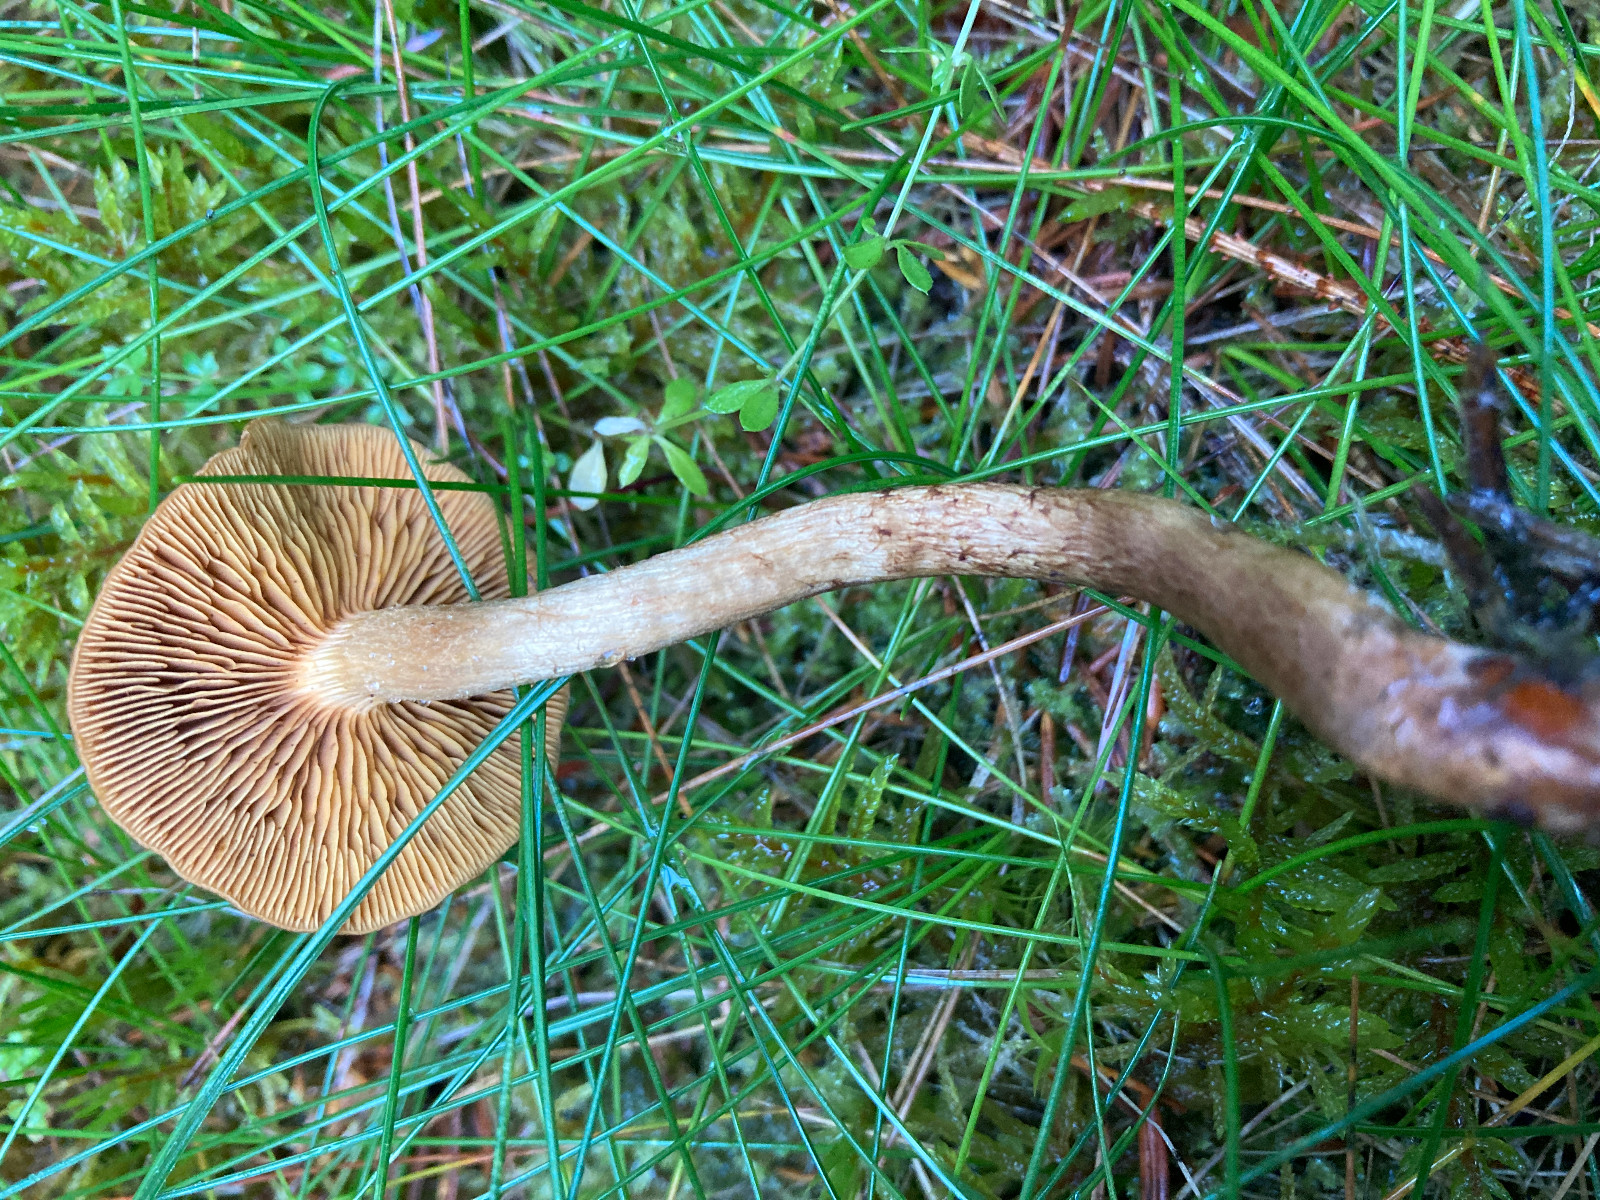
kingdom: Fungi
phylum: Basidiomycota
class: Agaricomycetes
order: Agaricales
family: Cortinariaceae
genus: Cortinarius
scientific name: Cortinarius
